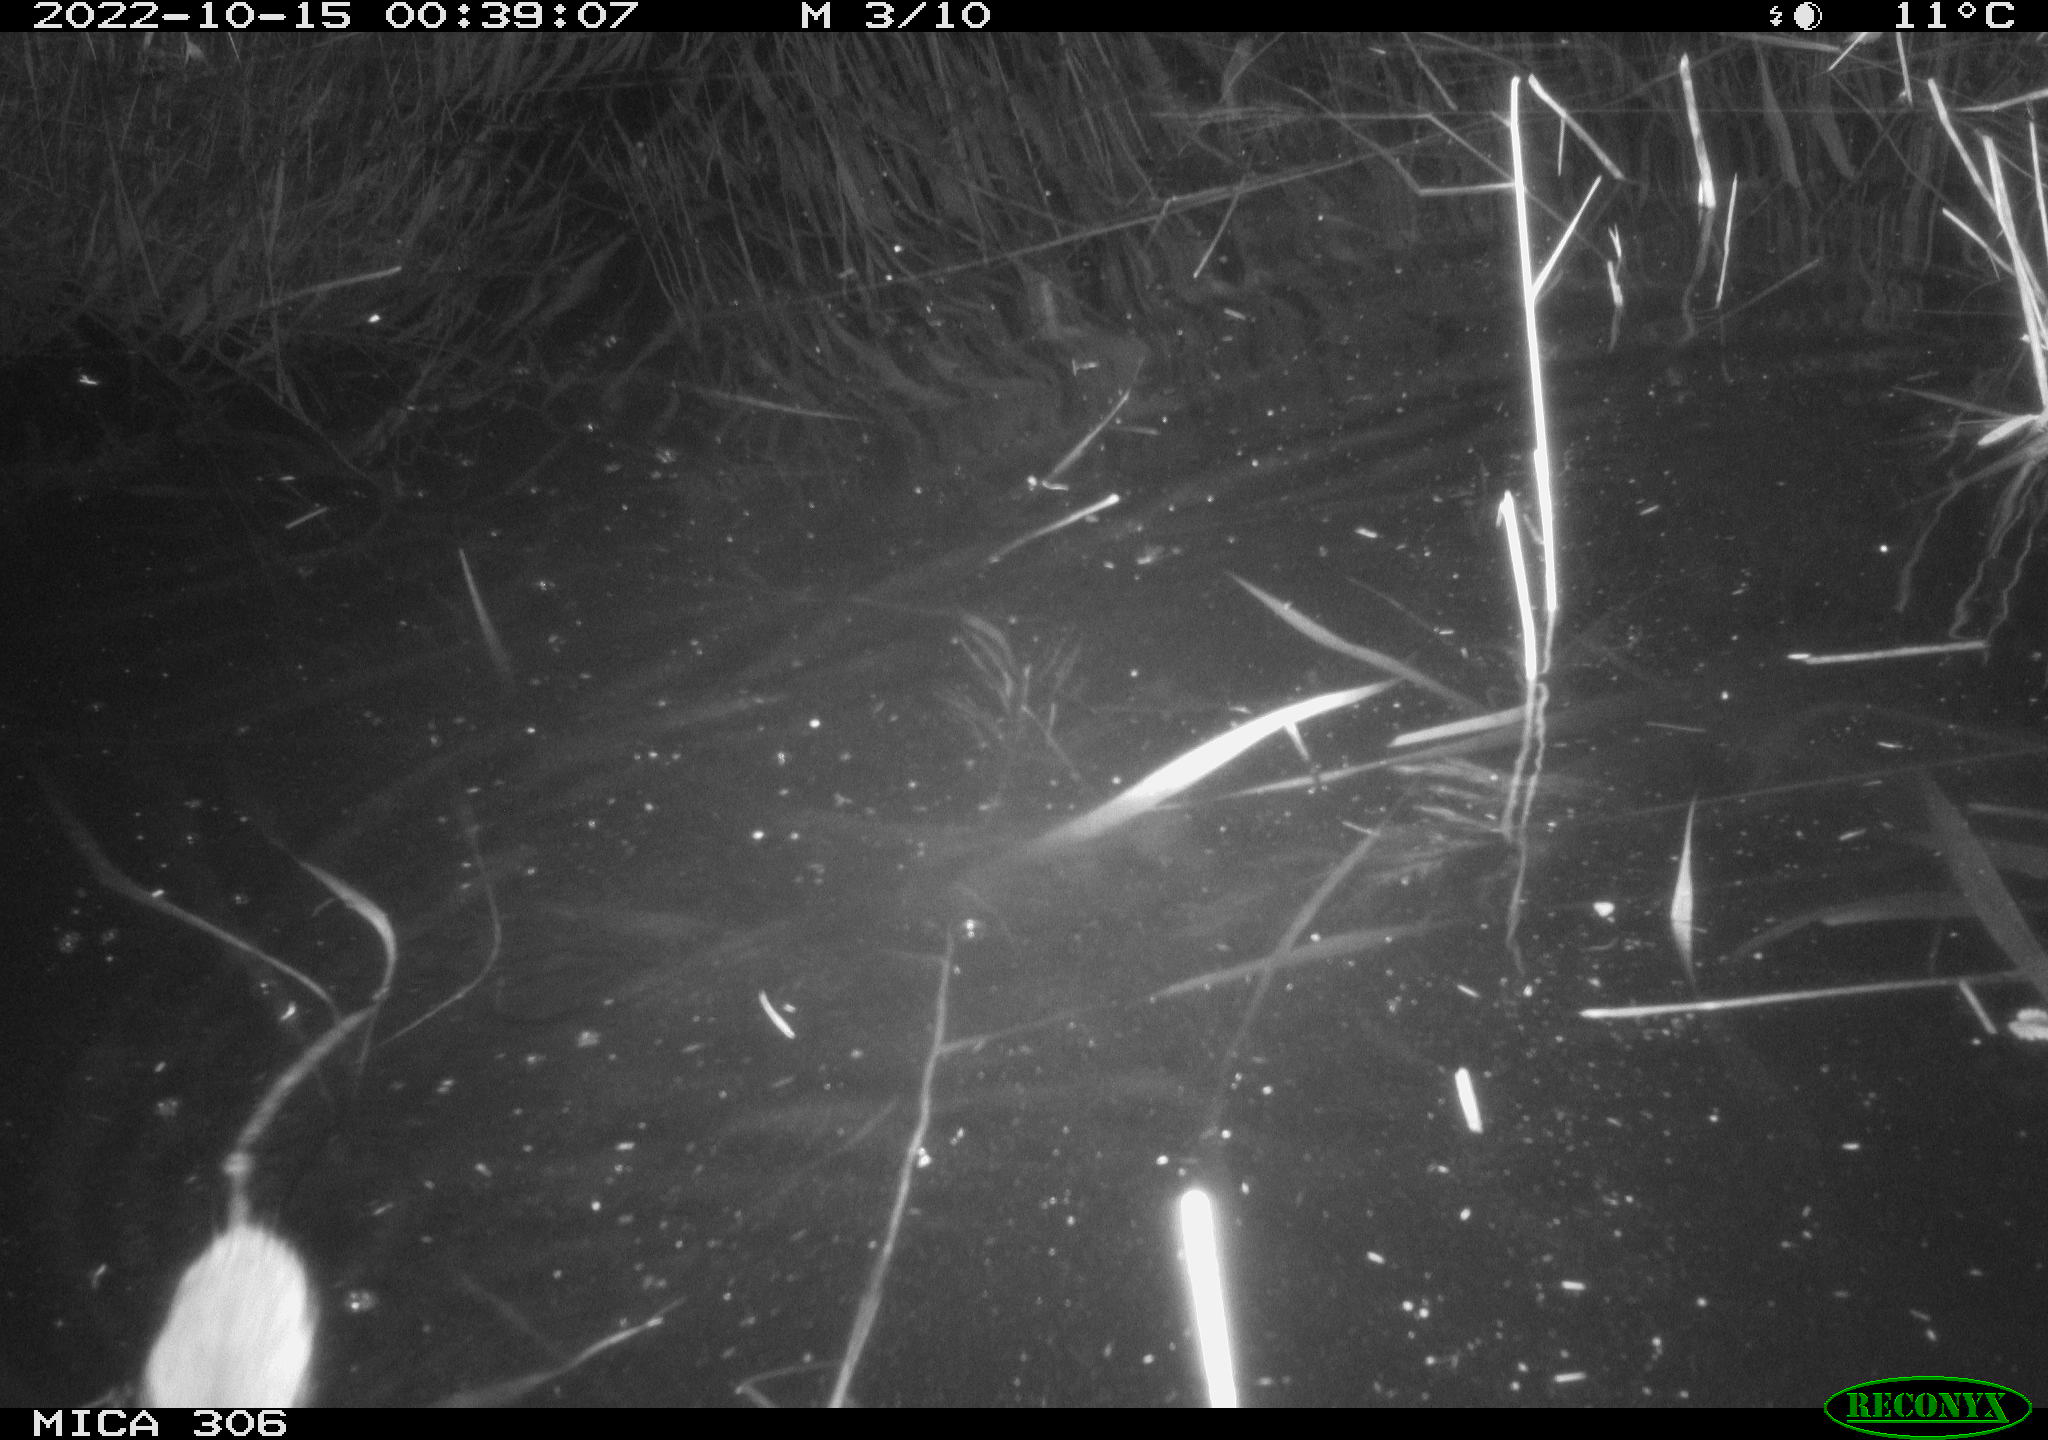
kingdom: Animalia
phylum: Chordata
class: Mammalia
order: Rodentia
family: Muridae
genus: Rattus
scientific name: Rattus norvegicus
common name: Brown rat
